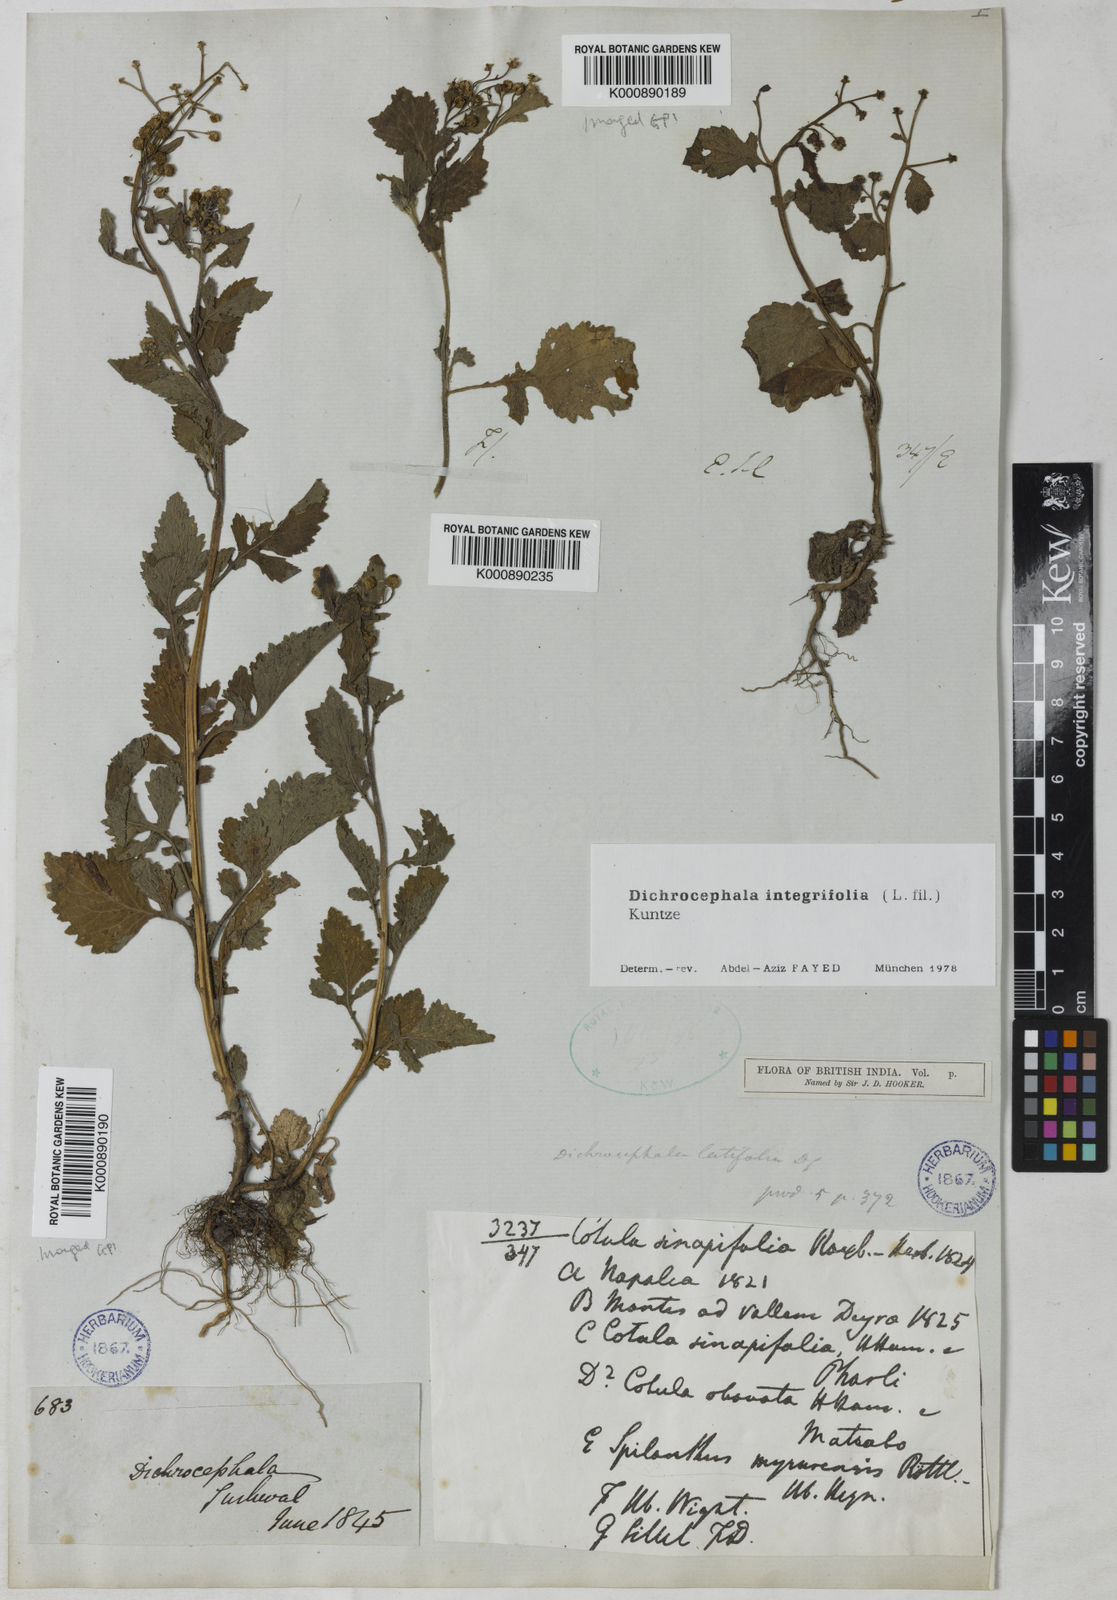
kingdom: Plantae
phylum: Tracheophyta
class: Magnoliopsida
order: Asterales
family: Asteraceae
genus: Dichrocephala
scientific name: Dichrocephala integrifolia
